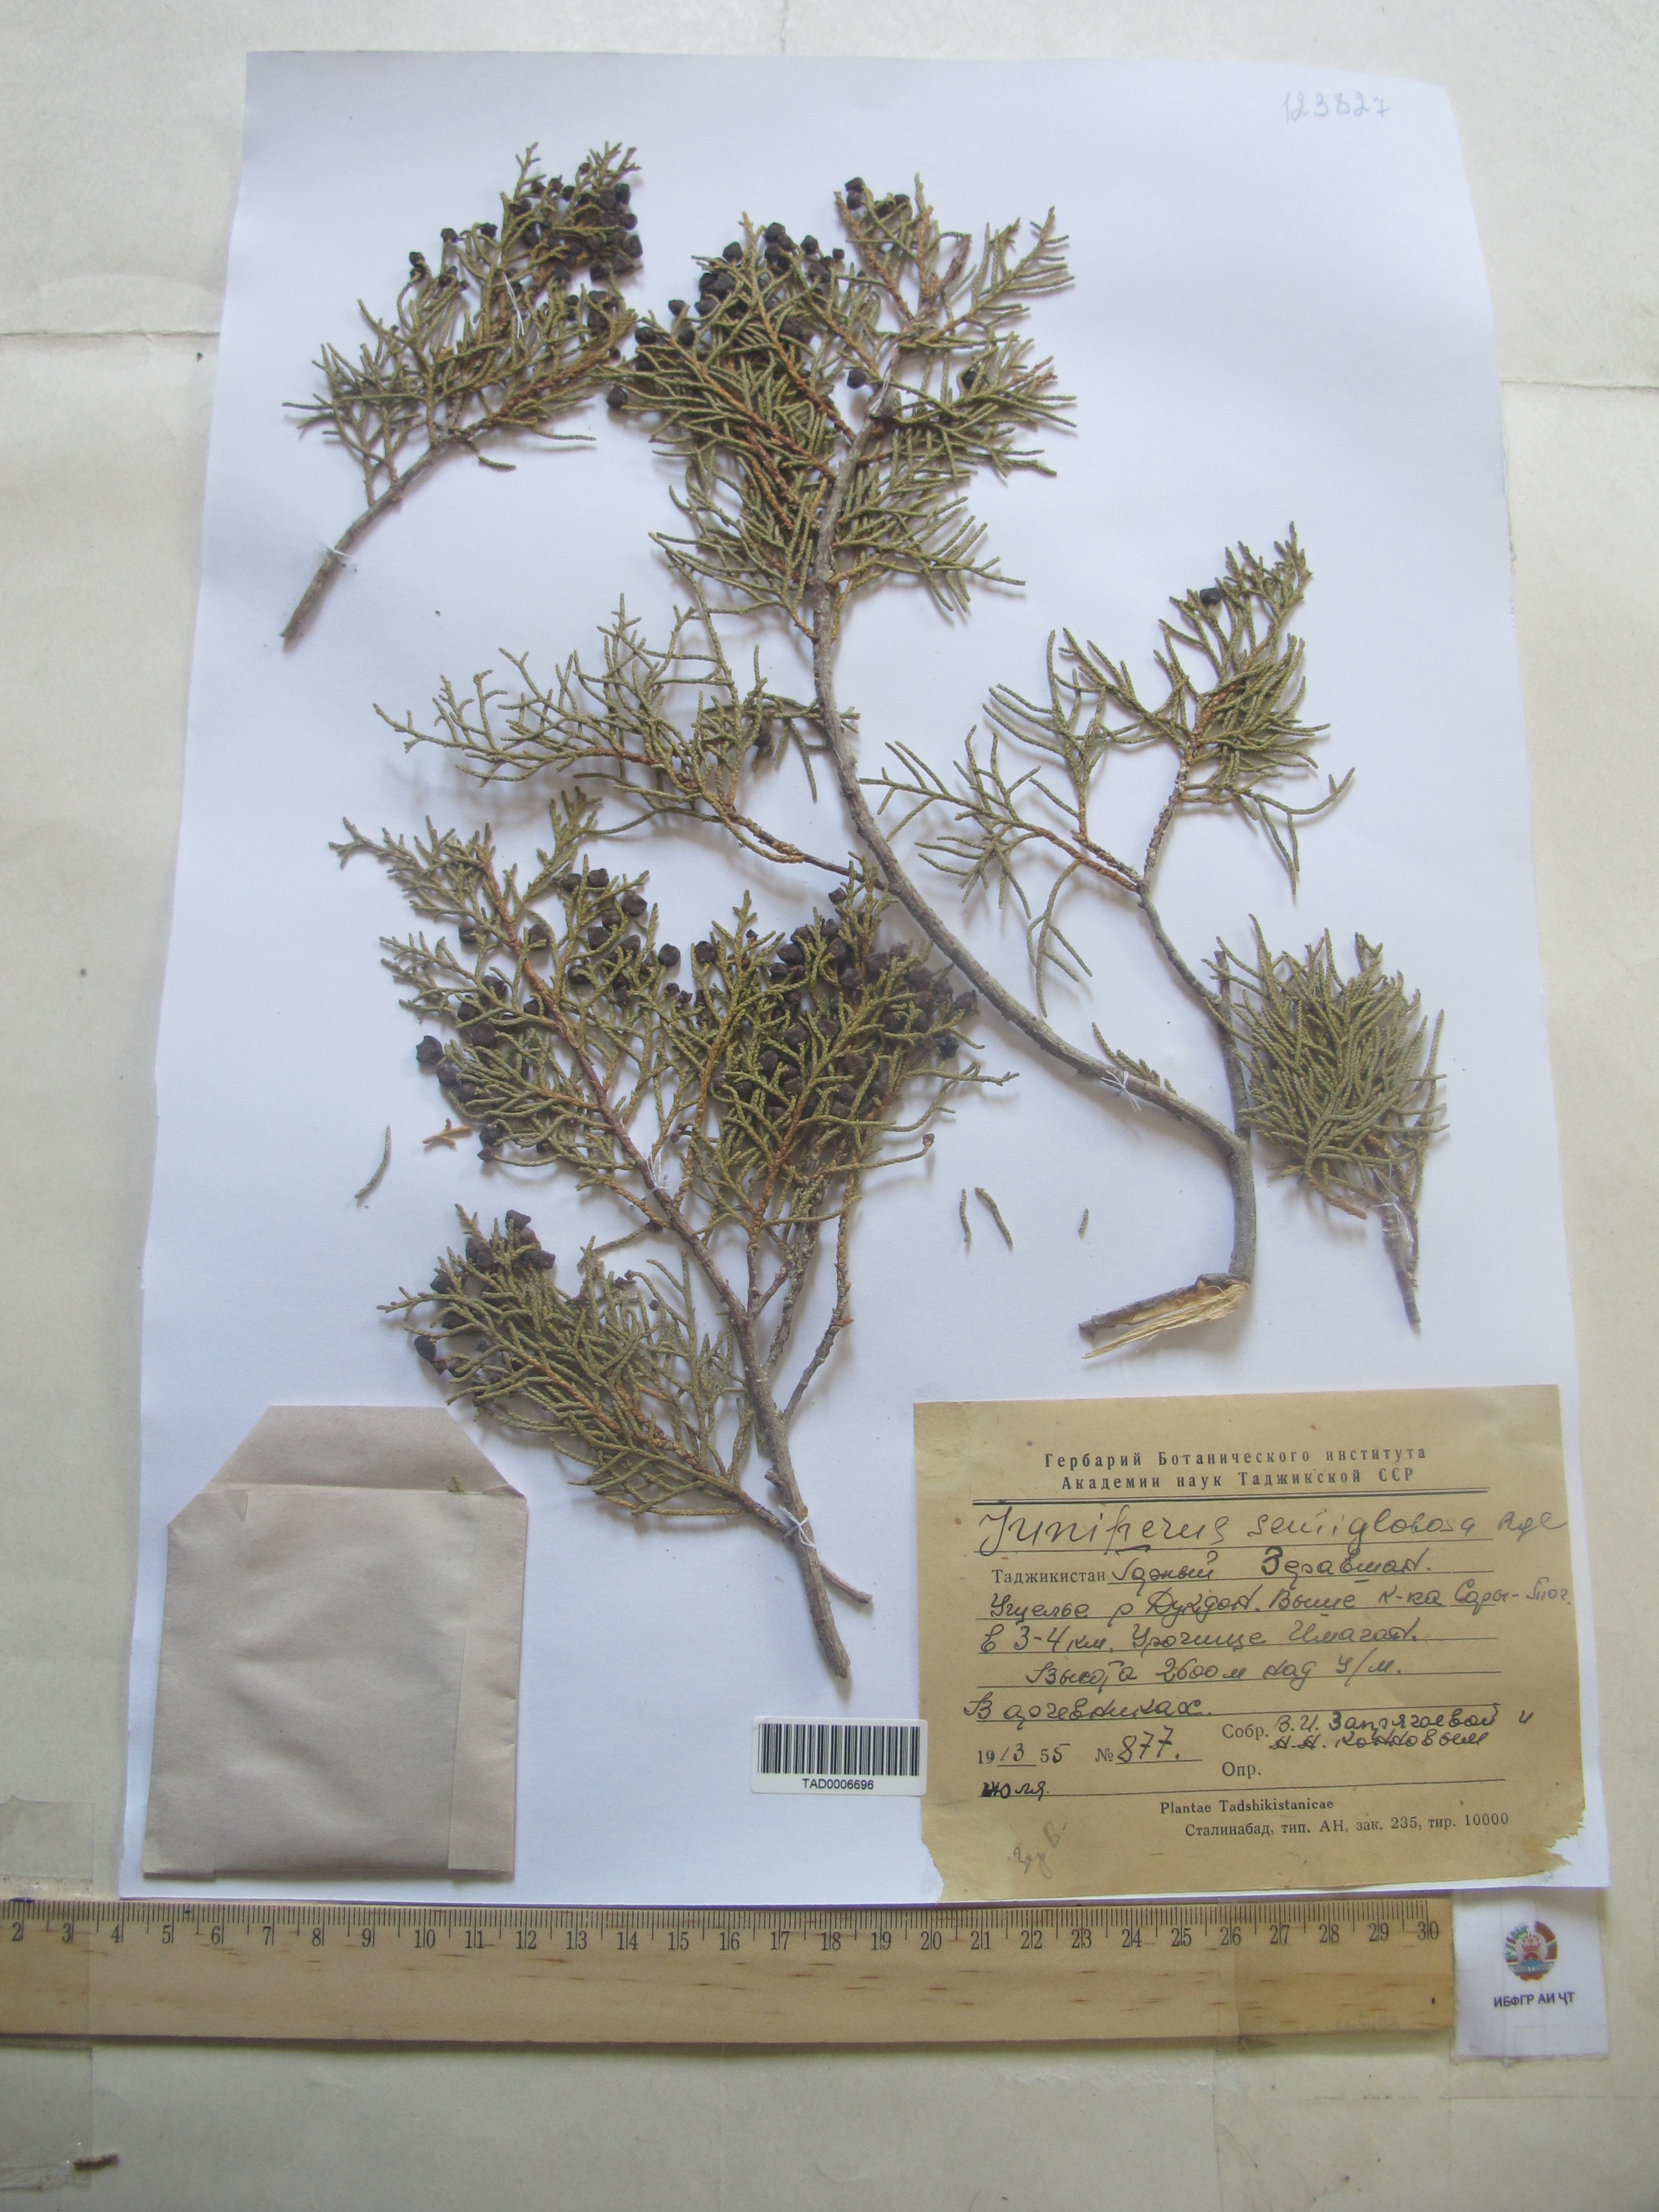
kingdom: Plantae
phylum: Tracheophyta
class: Pinopsida
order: Pinales
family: Cupressaceae
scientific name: Cupressaceae
